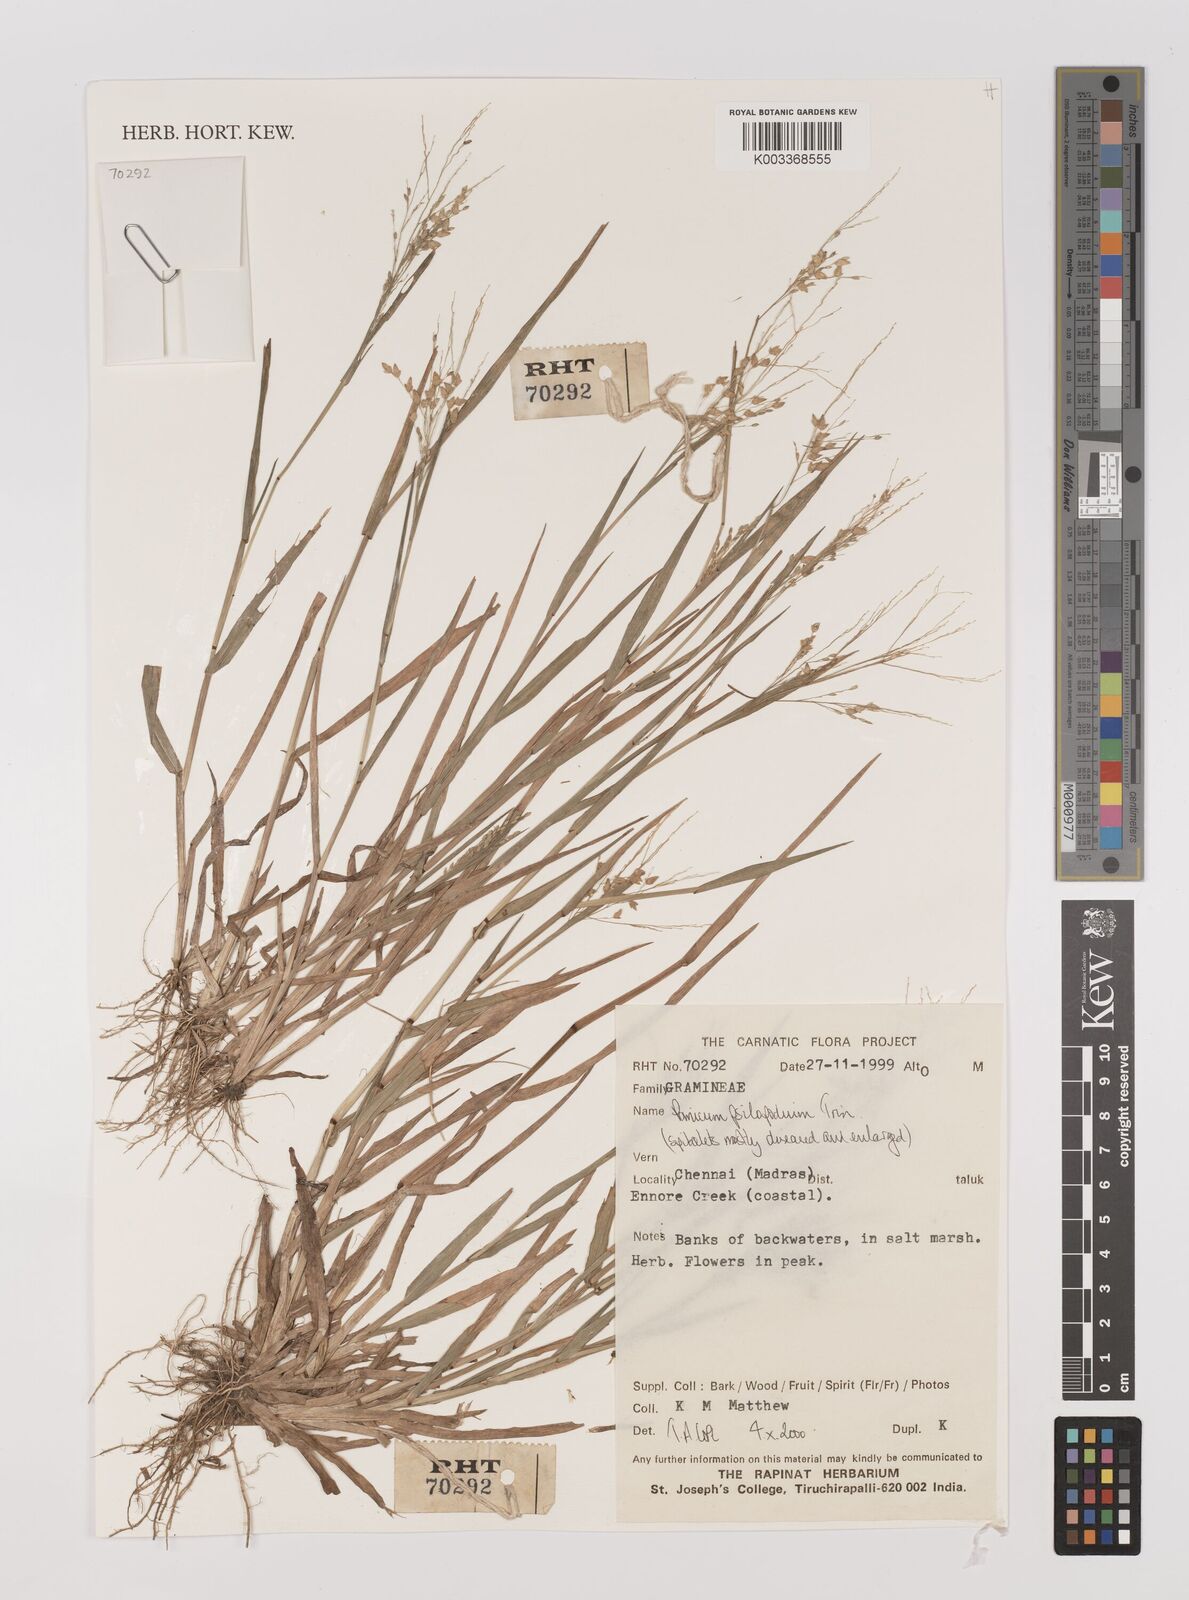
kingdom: Plantae
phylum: Tracheophyta
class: Liliopsida
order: Poales
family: Poaceae
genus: Panicum
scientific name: Panicum sumatrense
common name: Little millet
